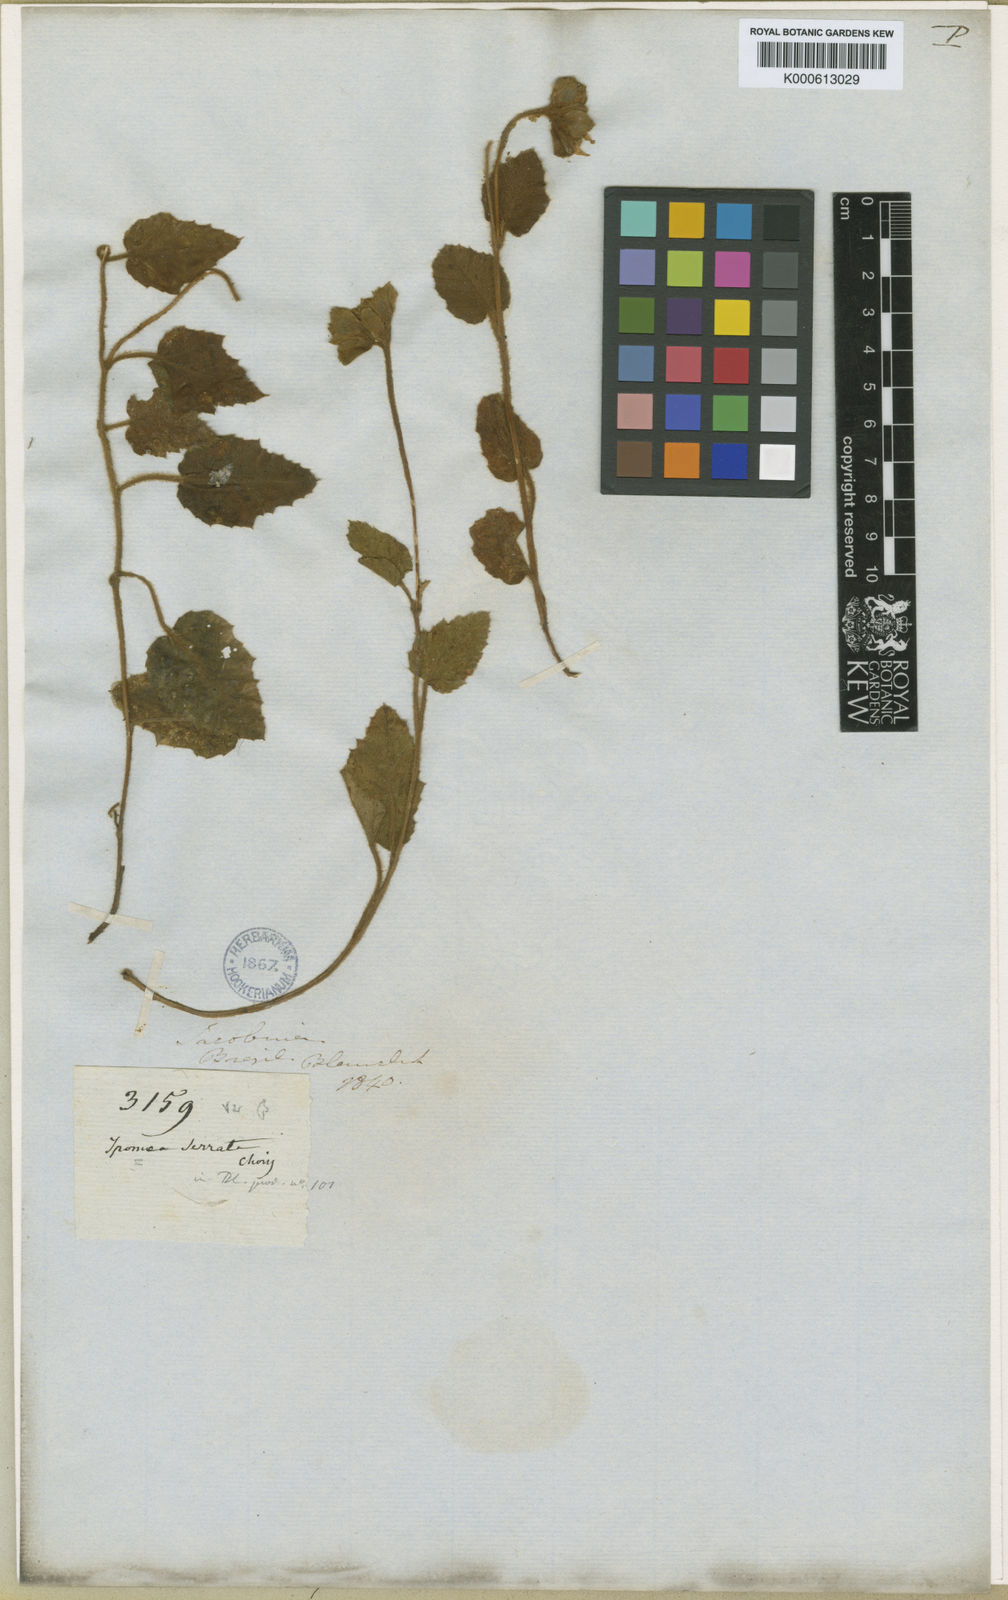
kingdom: Plantae
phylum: Tracheophyta
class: Magnoliopsida
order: Solanales
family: Convolvulaceae
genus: Daustinia
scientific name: Daustinia montana
